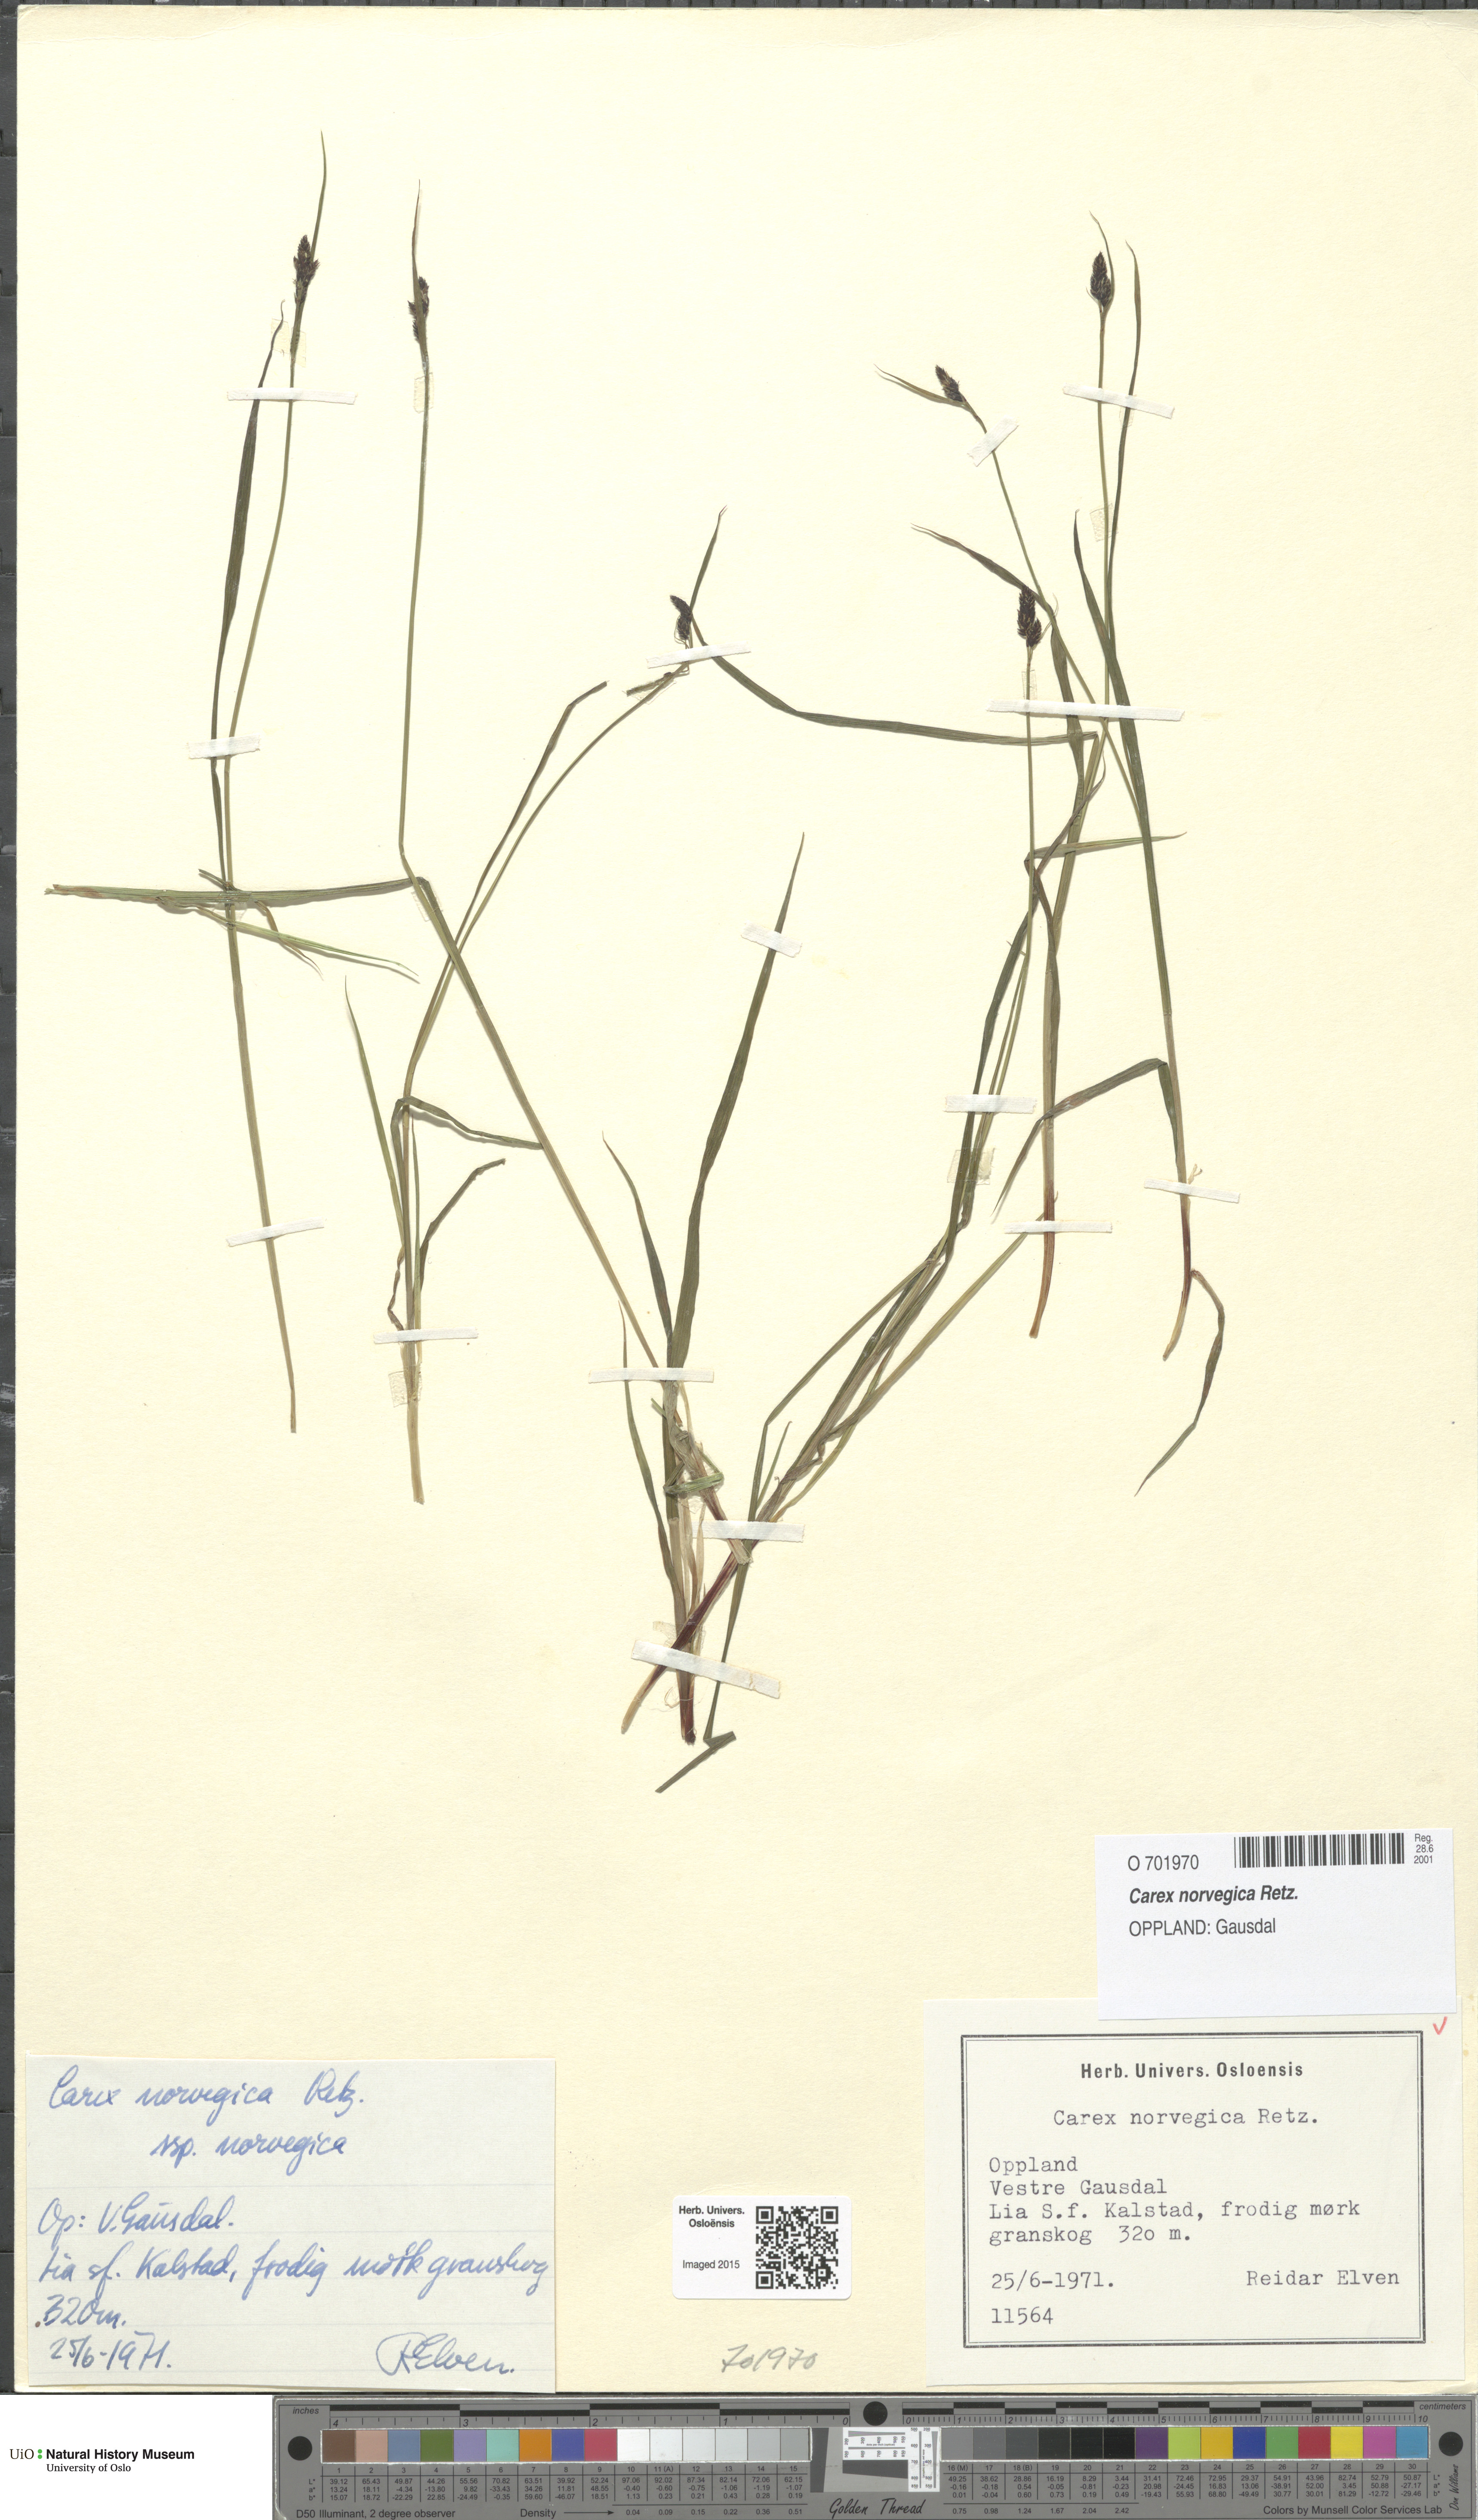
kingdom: Plantae
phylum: Tracheophyta
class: Liliopsida
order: Poales
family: Cyperaceae
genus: Carex
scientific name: Carex norvegica
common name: Close-headed alpine-sedge
